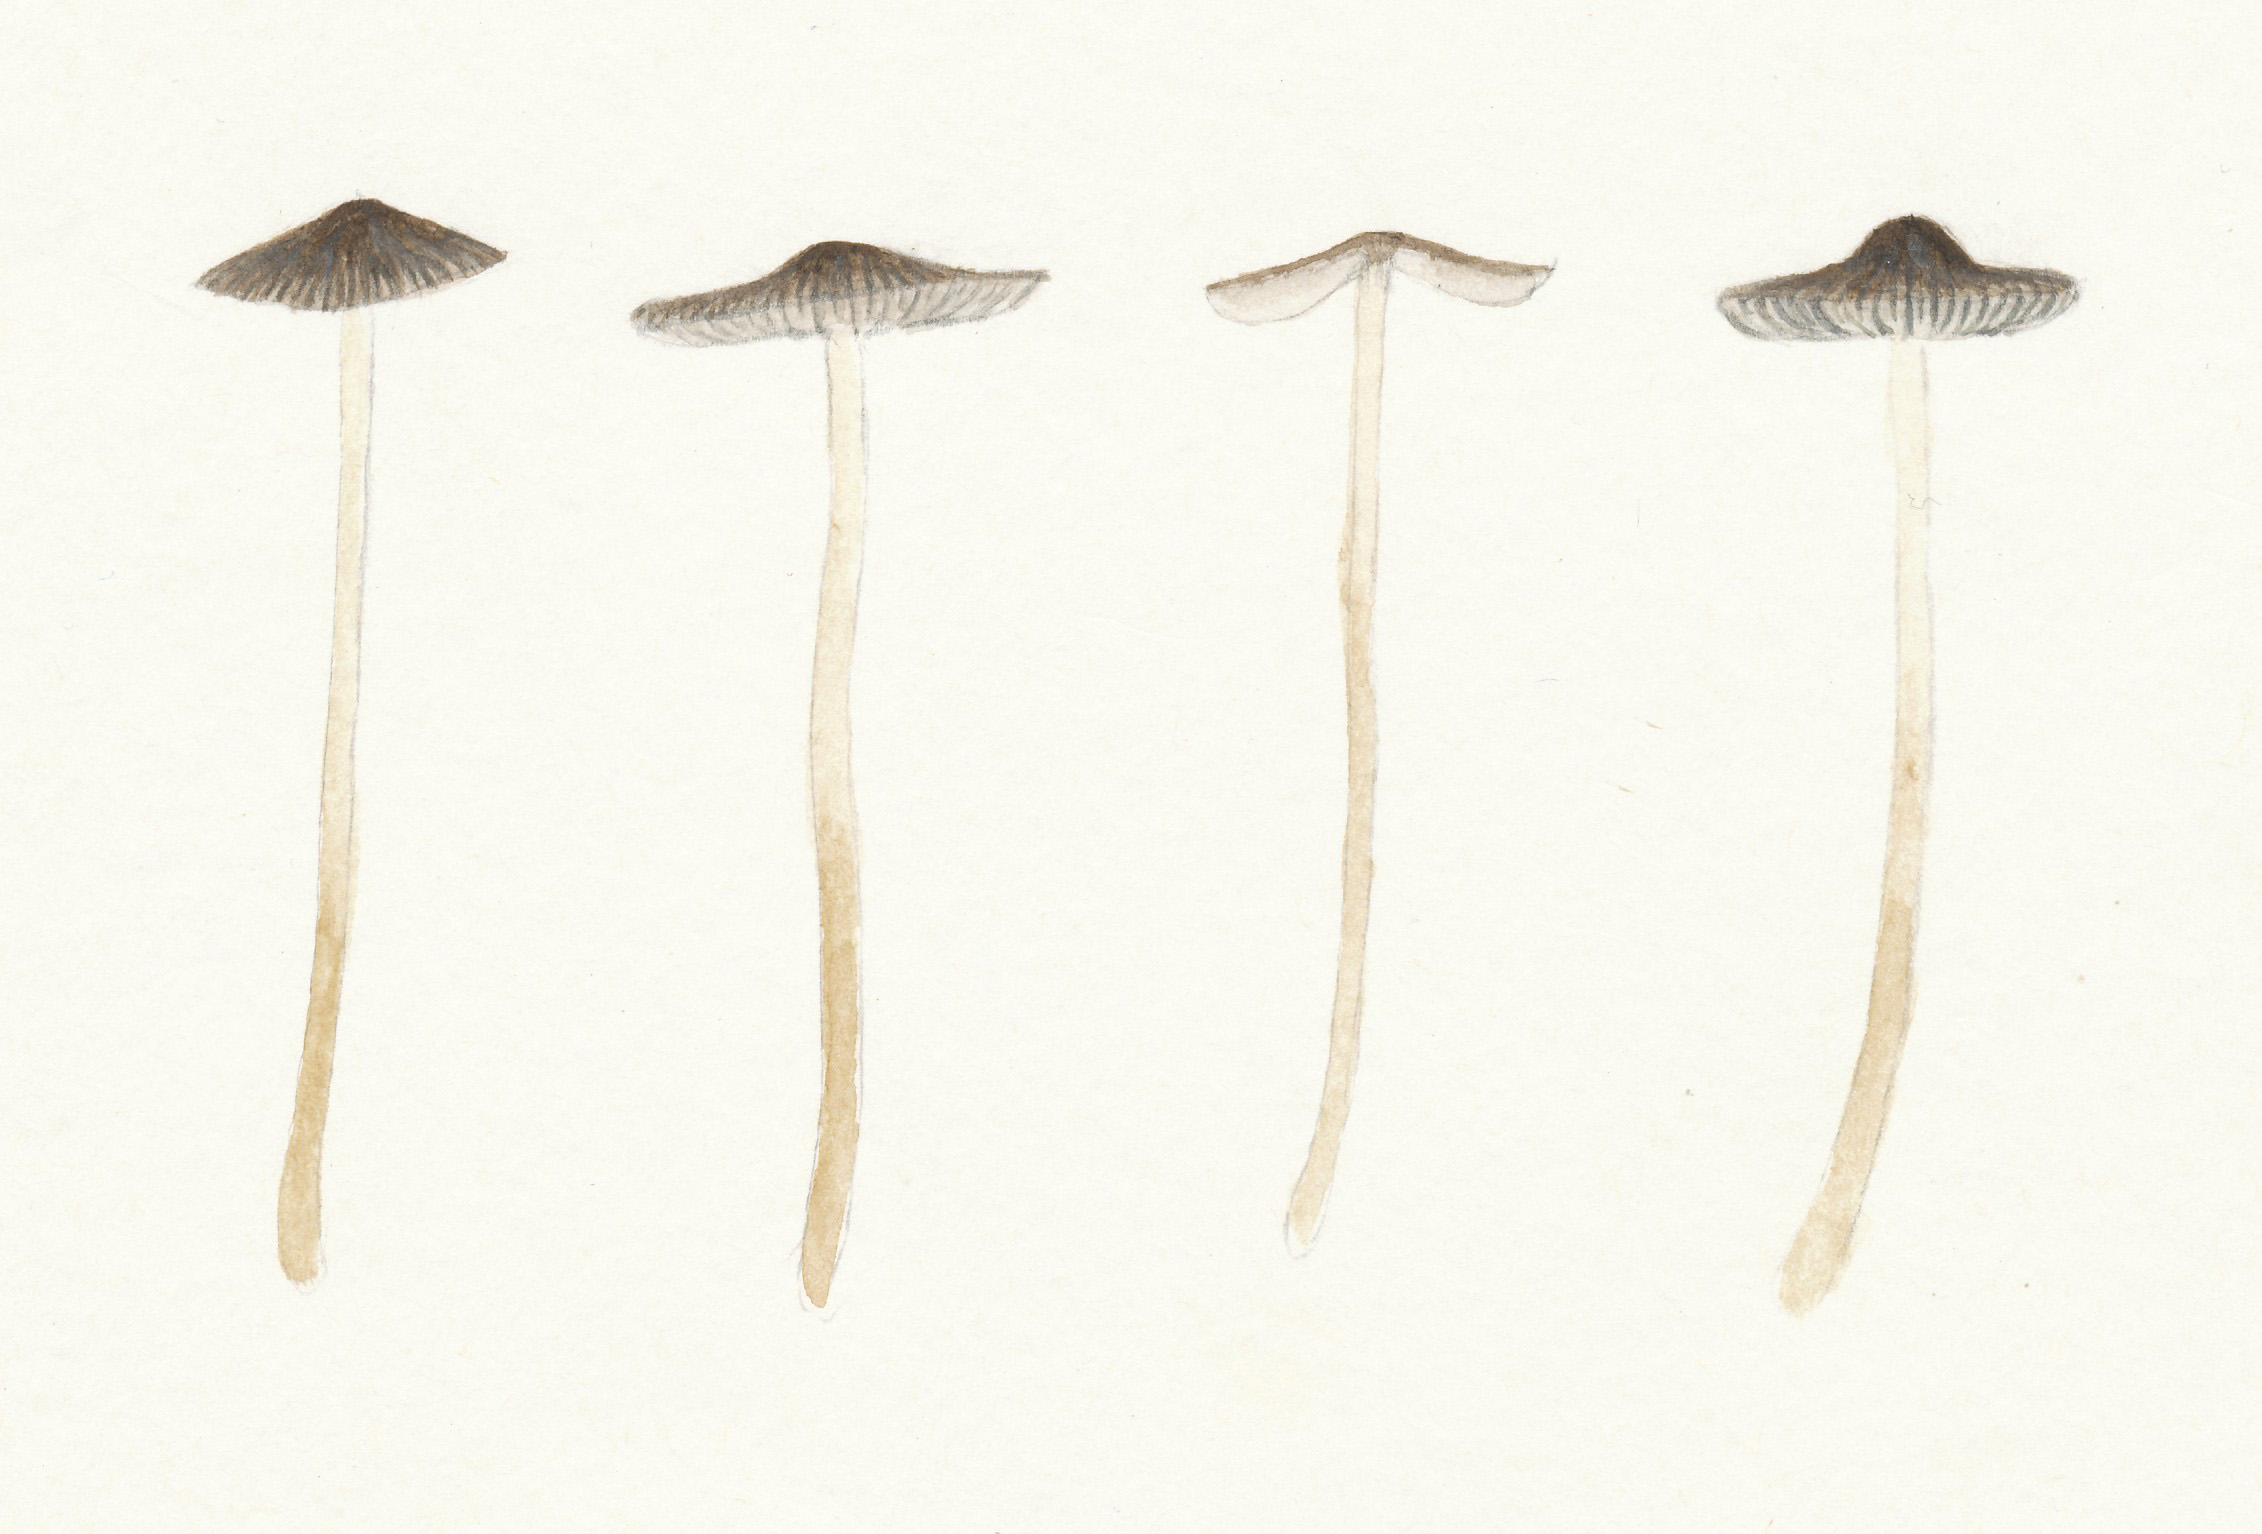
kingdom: Fungi
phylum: Basidiomycota
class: Agaricomycetes
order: Agaricales
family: Mycenaceae
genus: Mycena
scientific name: Mycena aetites
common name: plæne-huesvamp
